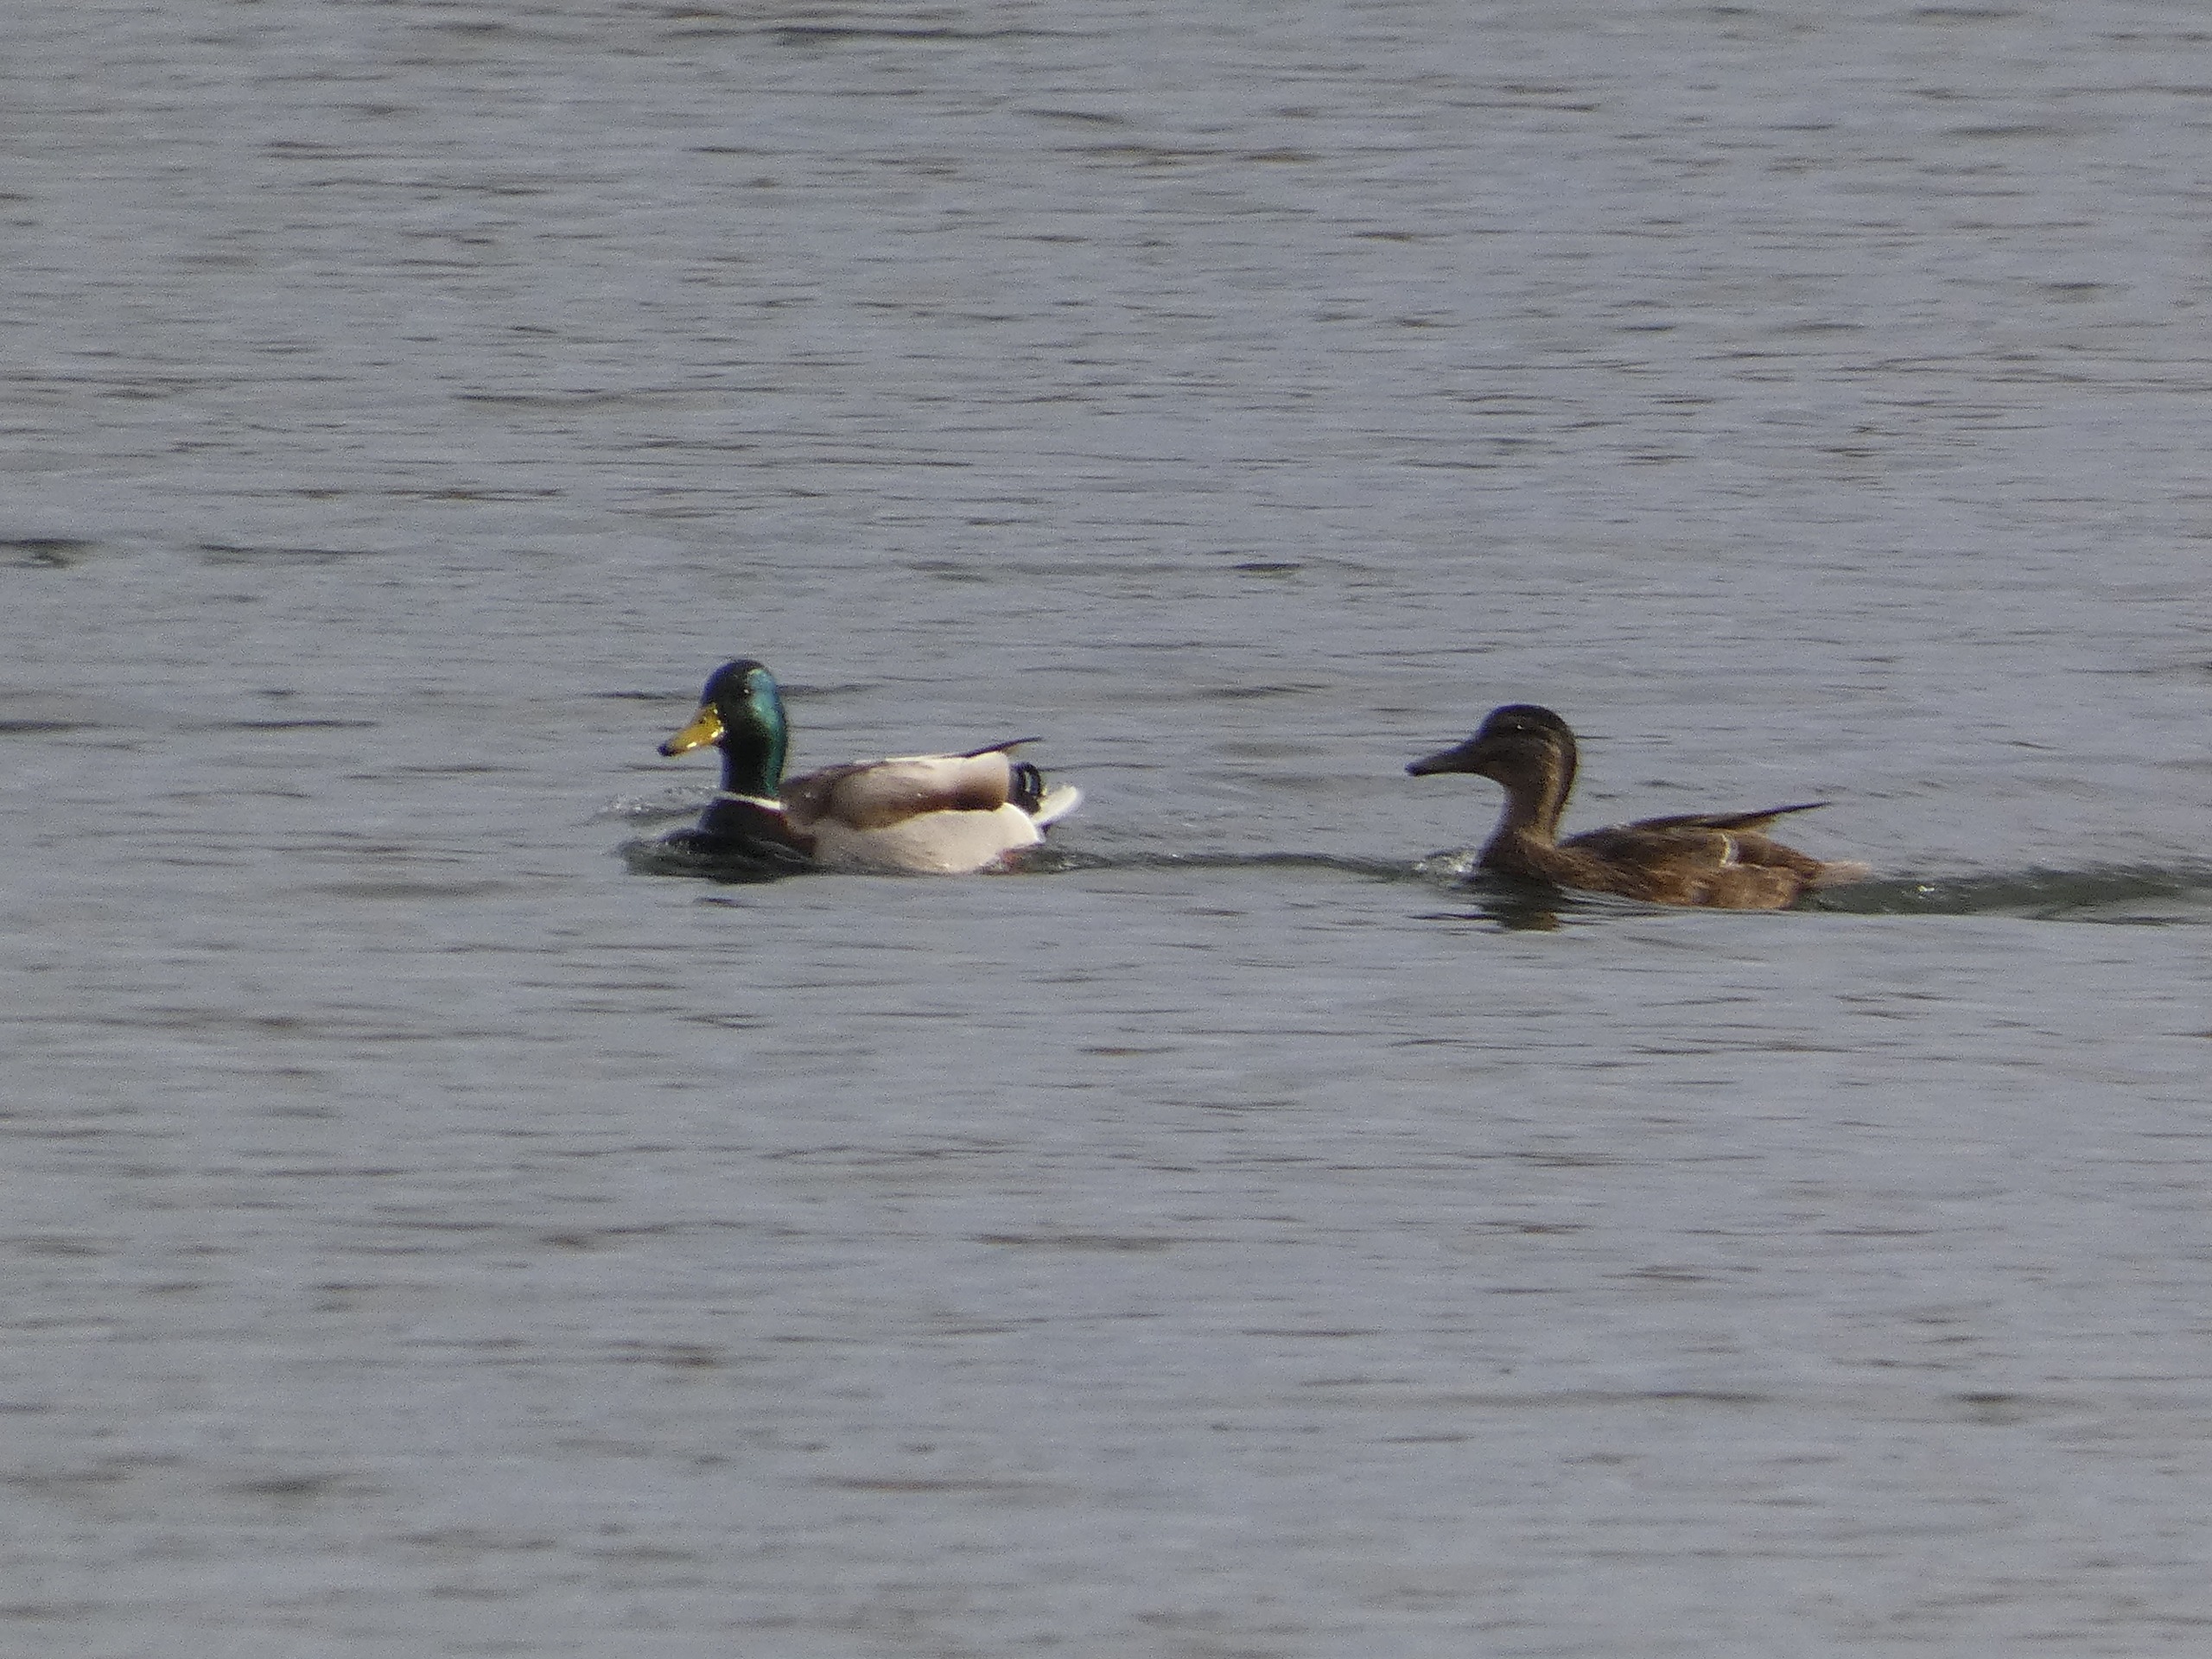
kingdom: Animalia
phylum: Chordata
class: Aves
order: Anseriformes
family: Anatidae
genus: Anas
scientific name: Anas platyrhynchos
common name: Gråand
